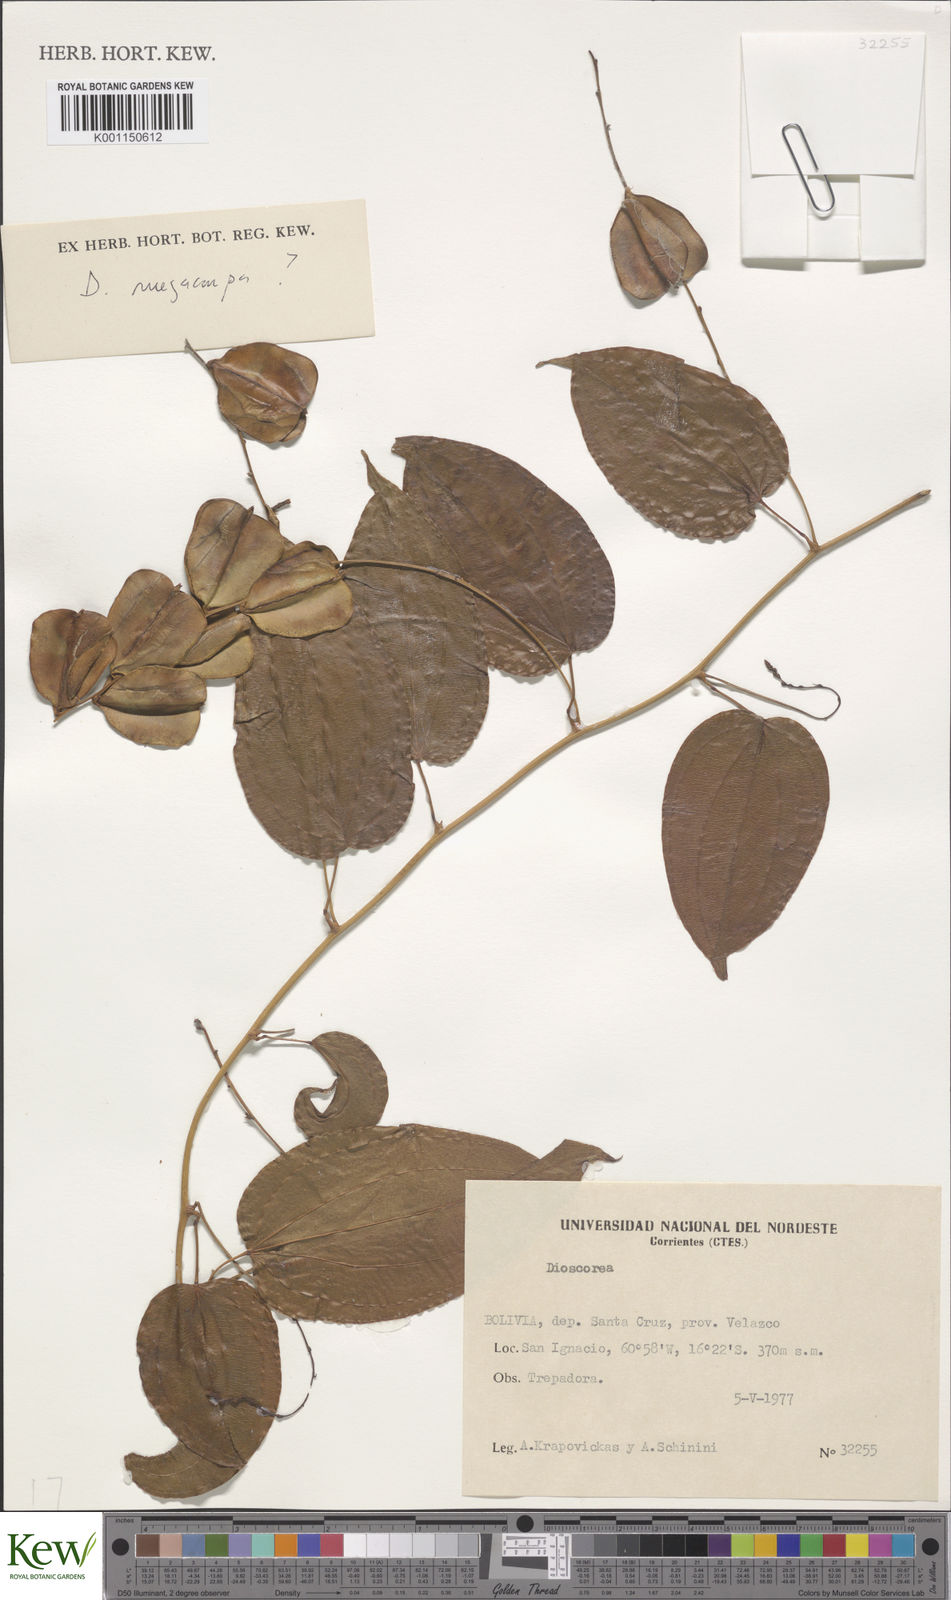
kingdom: Plantae
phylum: Tracheophyta
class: Liliopsida
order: Dioscoreales
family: Dioscoreaceae
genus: Dioscorea
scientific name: Dioscorea
